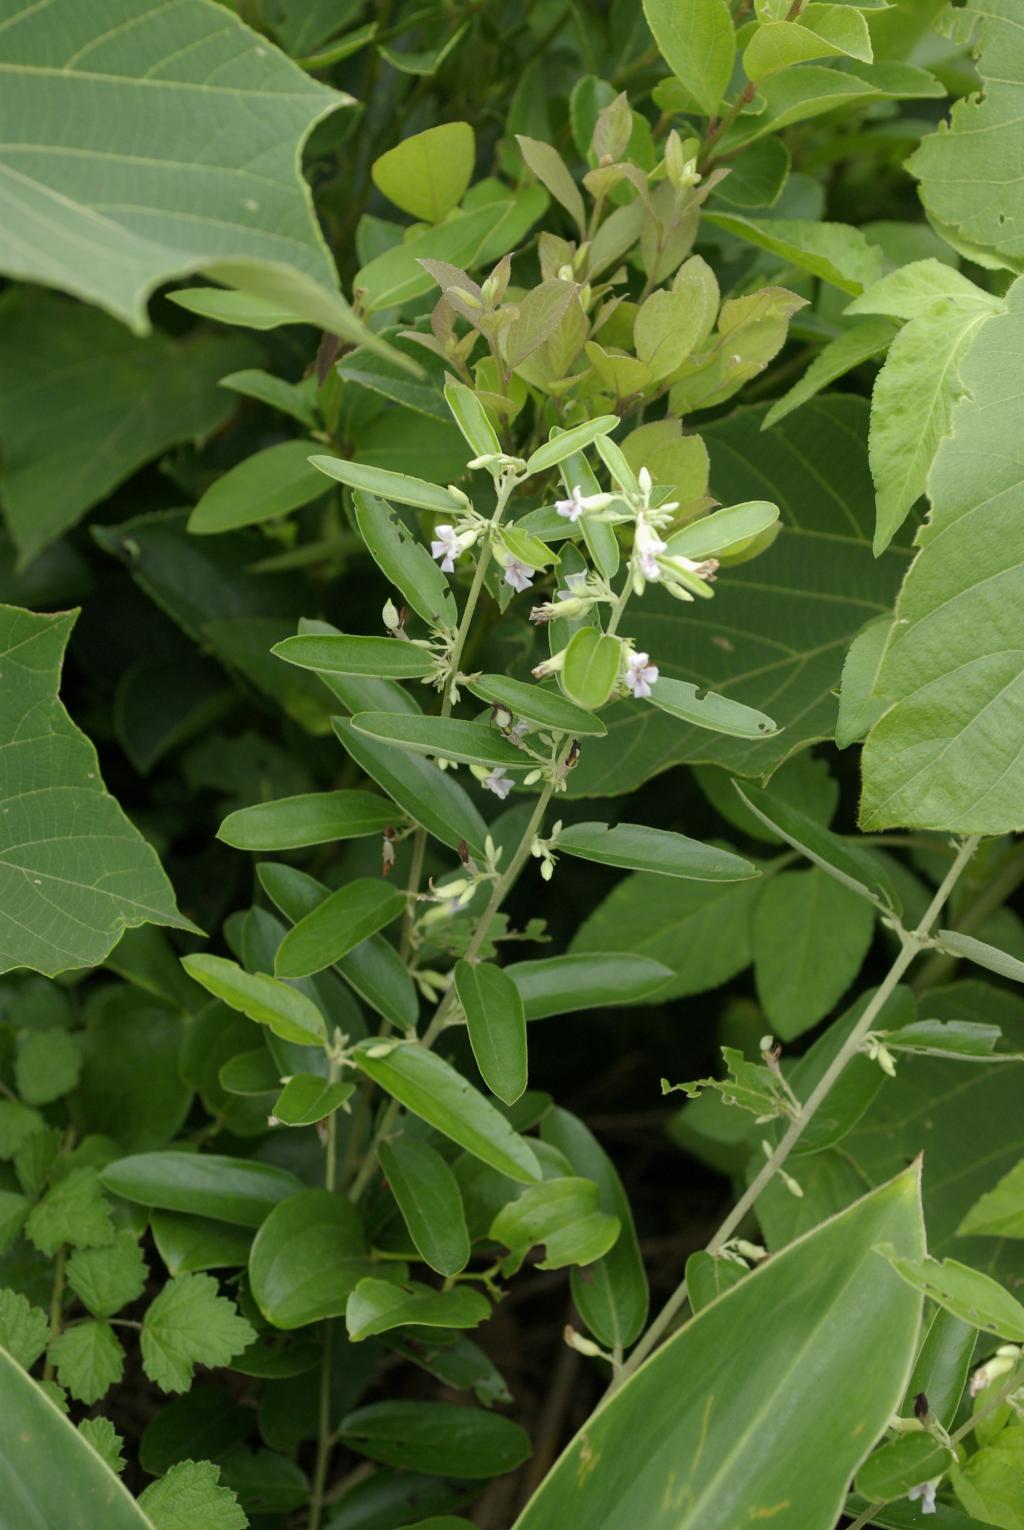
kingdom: Plantae
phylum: Tracheophyta
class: Magnoliopsida
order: Malvales
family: Malvaceae
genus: Helicteres
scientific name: Helicteres augustifolia
